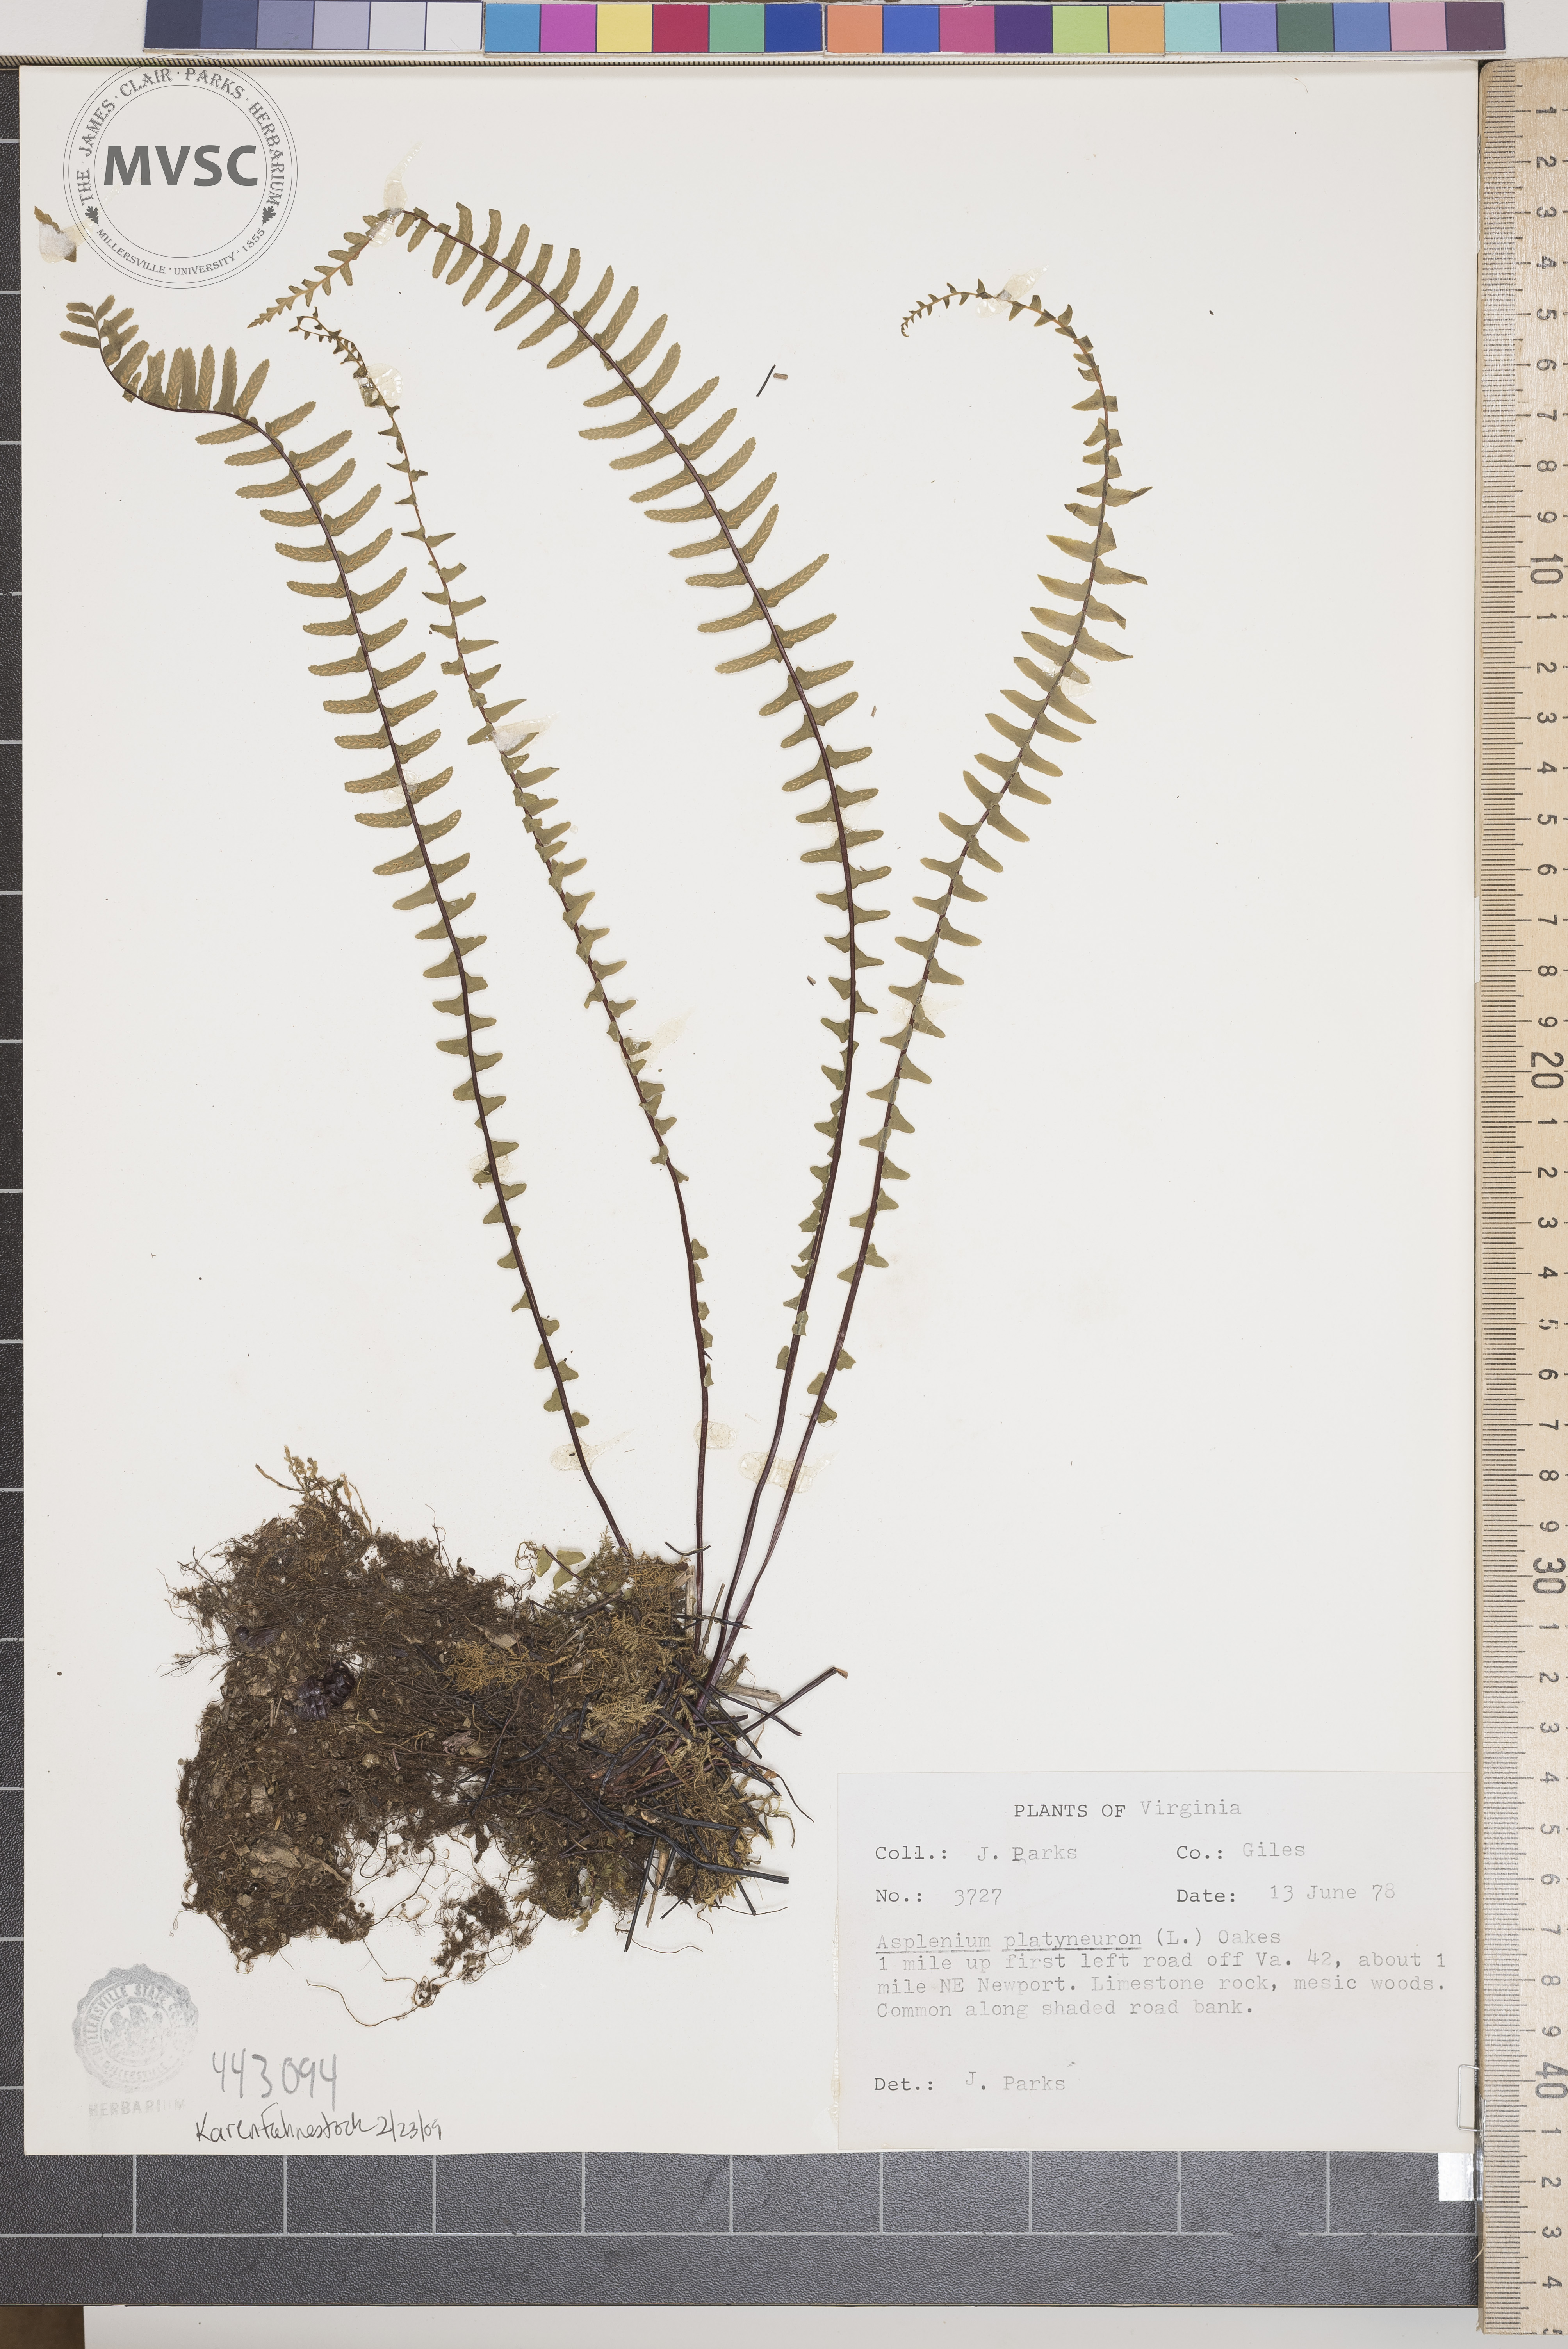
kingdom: Plantae
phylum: Tracheophyta
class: Polypodiopsida
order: Polypodiales
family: Aspleniaceae
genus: Asplenium
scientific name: Asplenium platyneuron
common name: Ebony spleenwort
